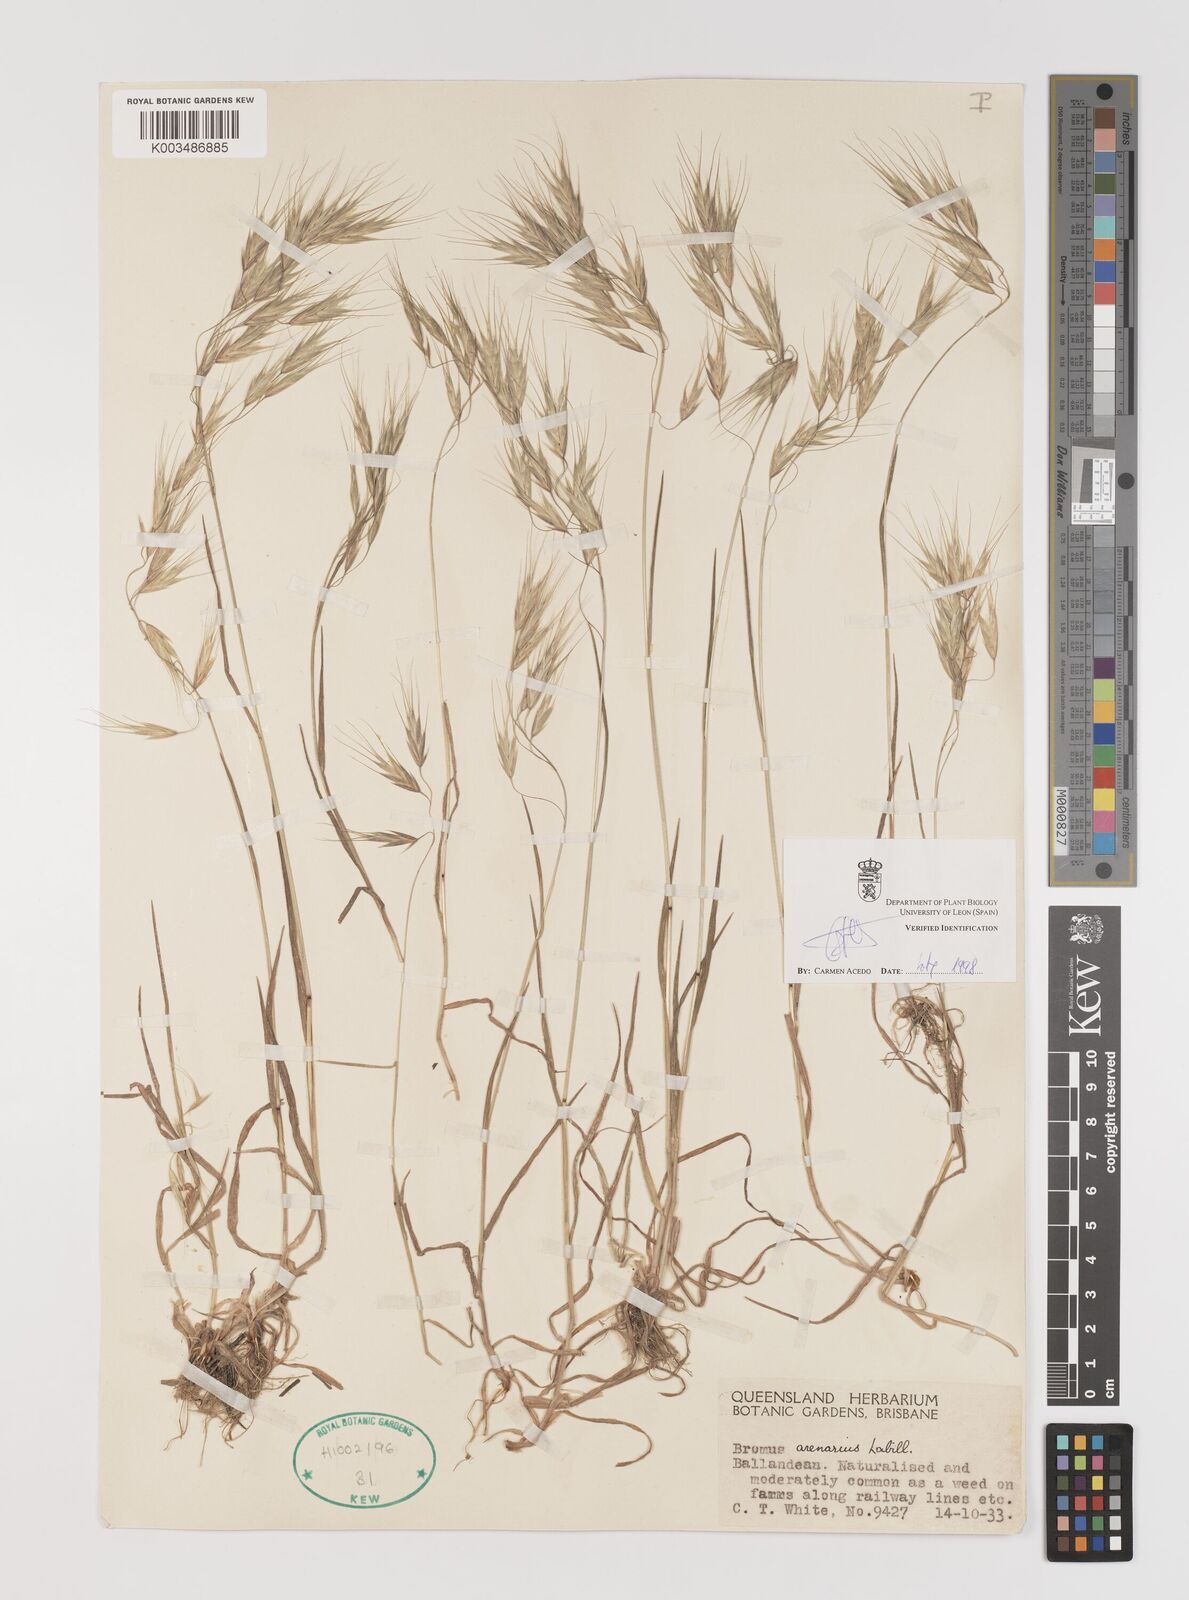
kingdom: Plantae
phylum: Tracheophyta
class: Liliopsida
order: Poales
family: Poaceae
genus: Bromus
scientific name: Bromus arenarius
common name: Australian brome
